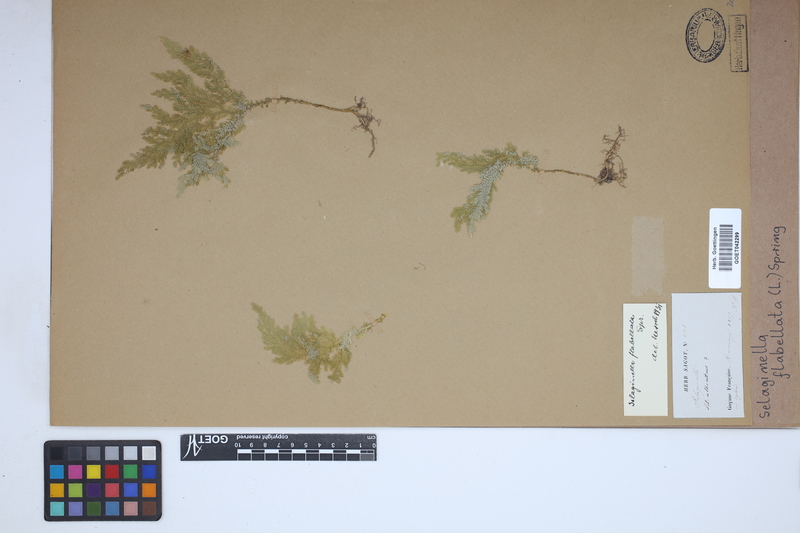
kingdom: Plantae
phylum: Tracheophyta
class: Lycopodiopsida
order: Selaginellales
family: Selaginellaceae
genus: Selaginella
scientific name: Selaginella flabellata
